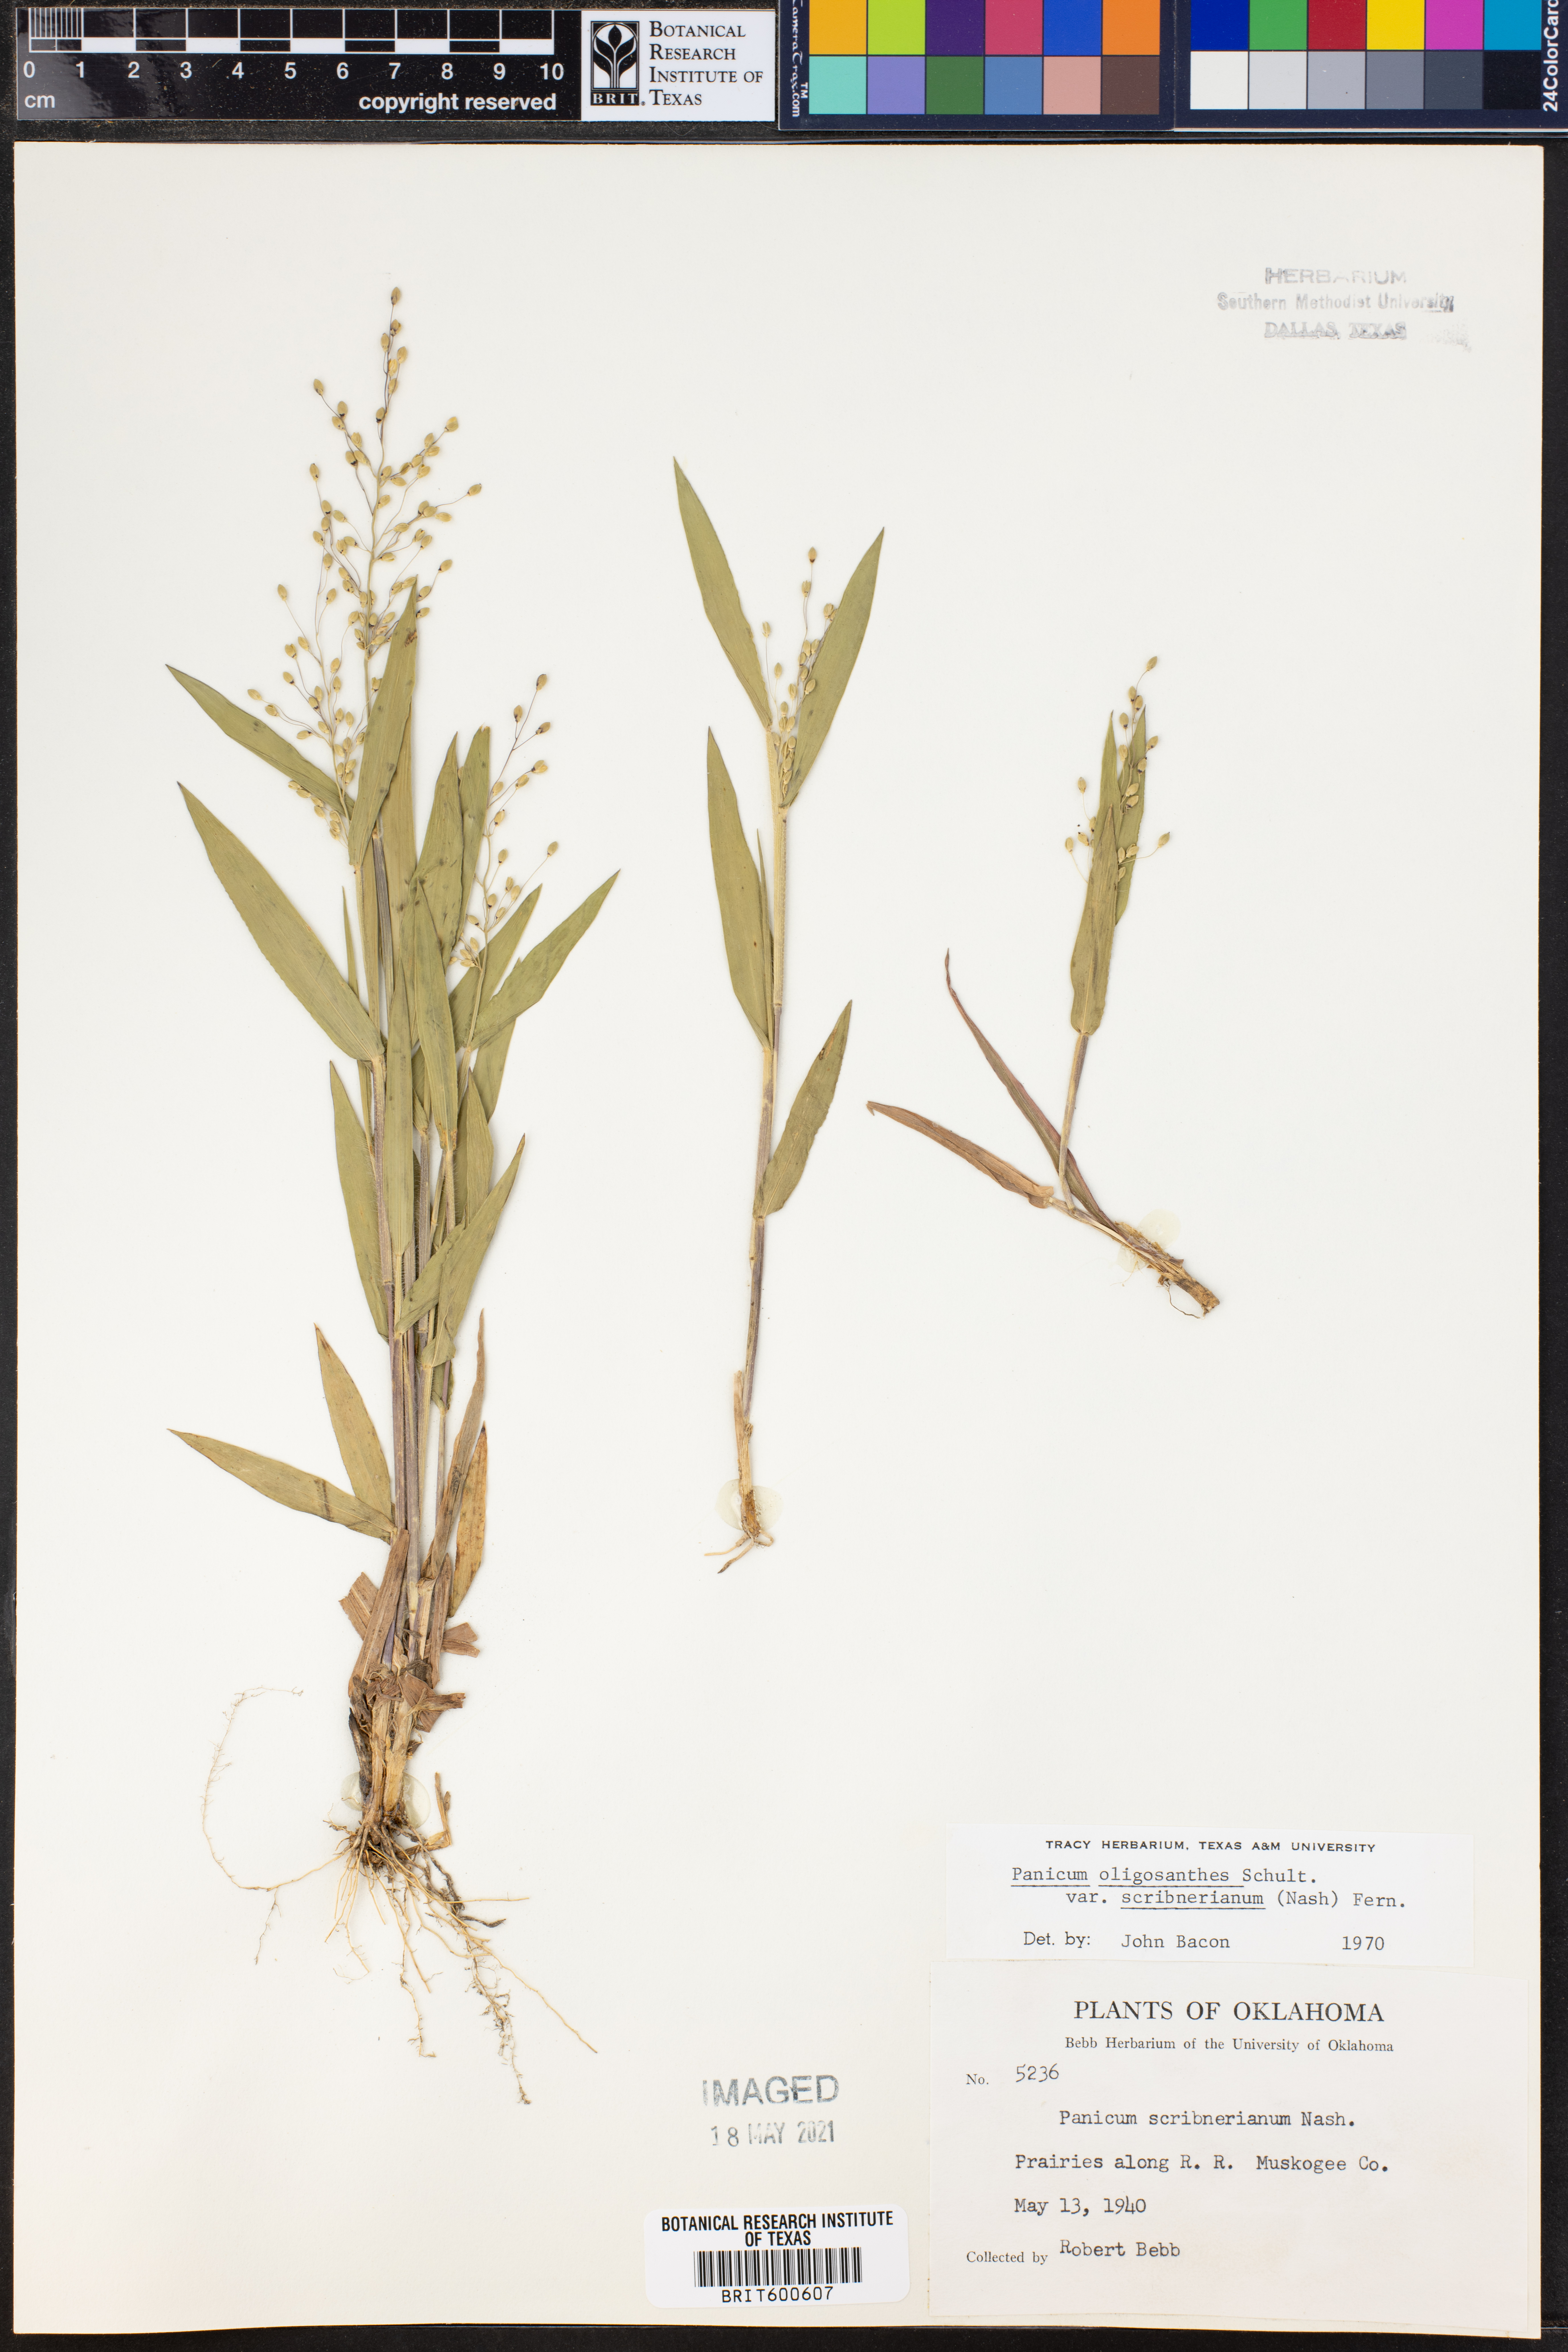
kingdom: Plantae
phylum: Tracheophyta
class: Liliopsida
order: Poales
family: Poaceae
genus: Dichanthelium
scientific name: Dichanthelium scribnerianum
